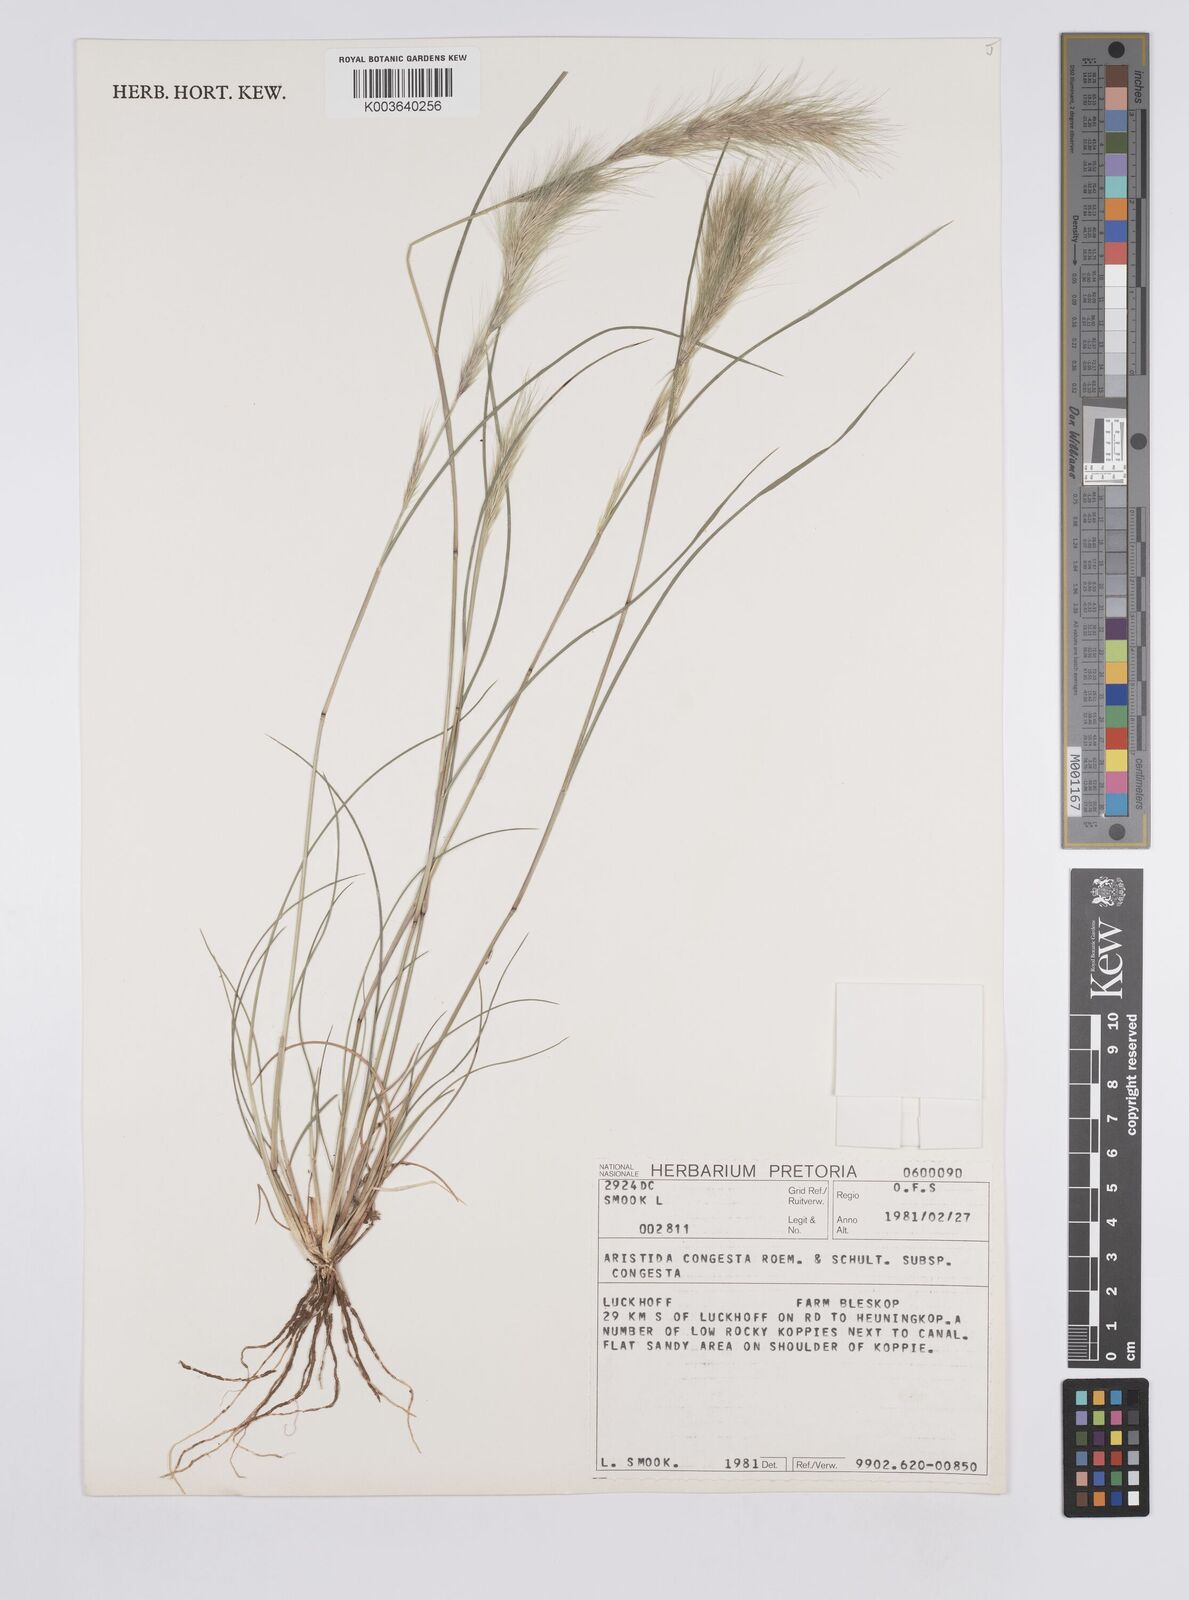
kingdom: Plantae
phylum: Tracheophyta
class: Liliopsida
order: Poales
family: Poaceae
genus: Aristida
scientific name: Aristida congesta
